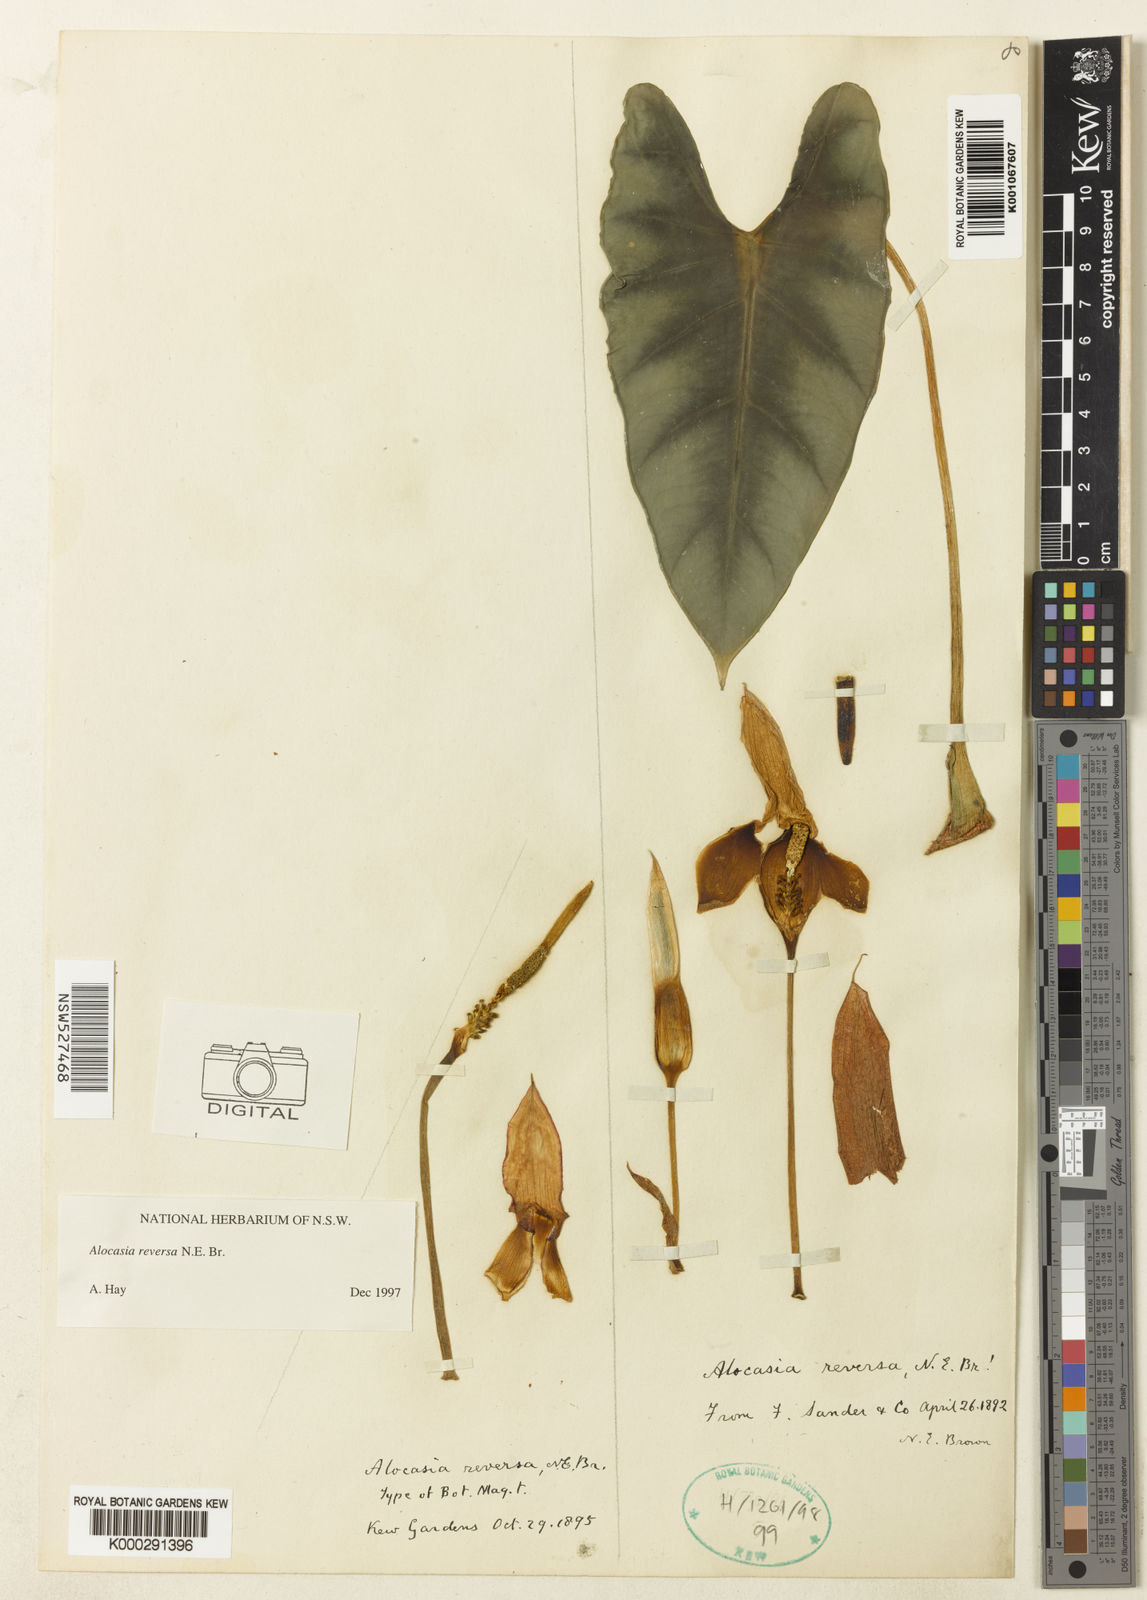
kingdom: Plantae
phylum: Tracheophyta
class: Liliopsida
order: Alismatales
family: Araceae
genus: Alocasia
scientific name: Alocasia reversa
